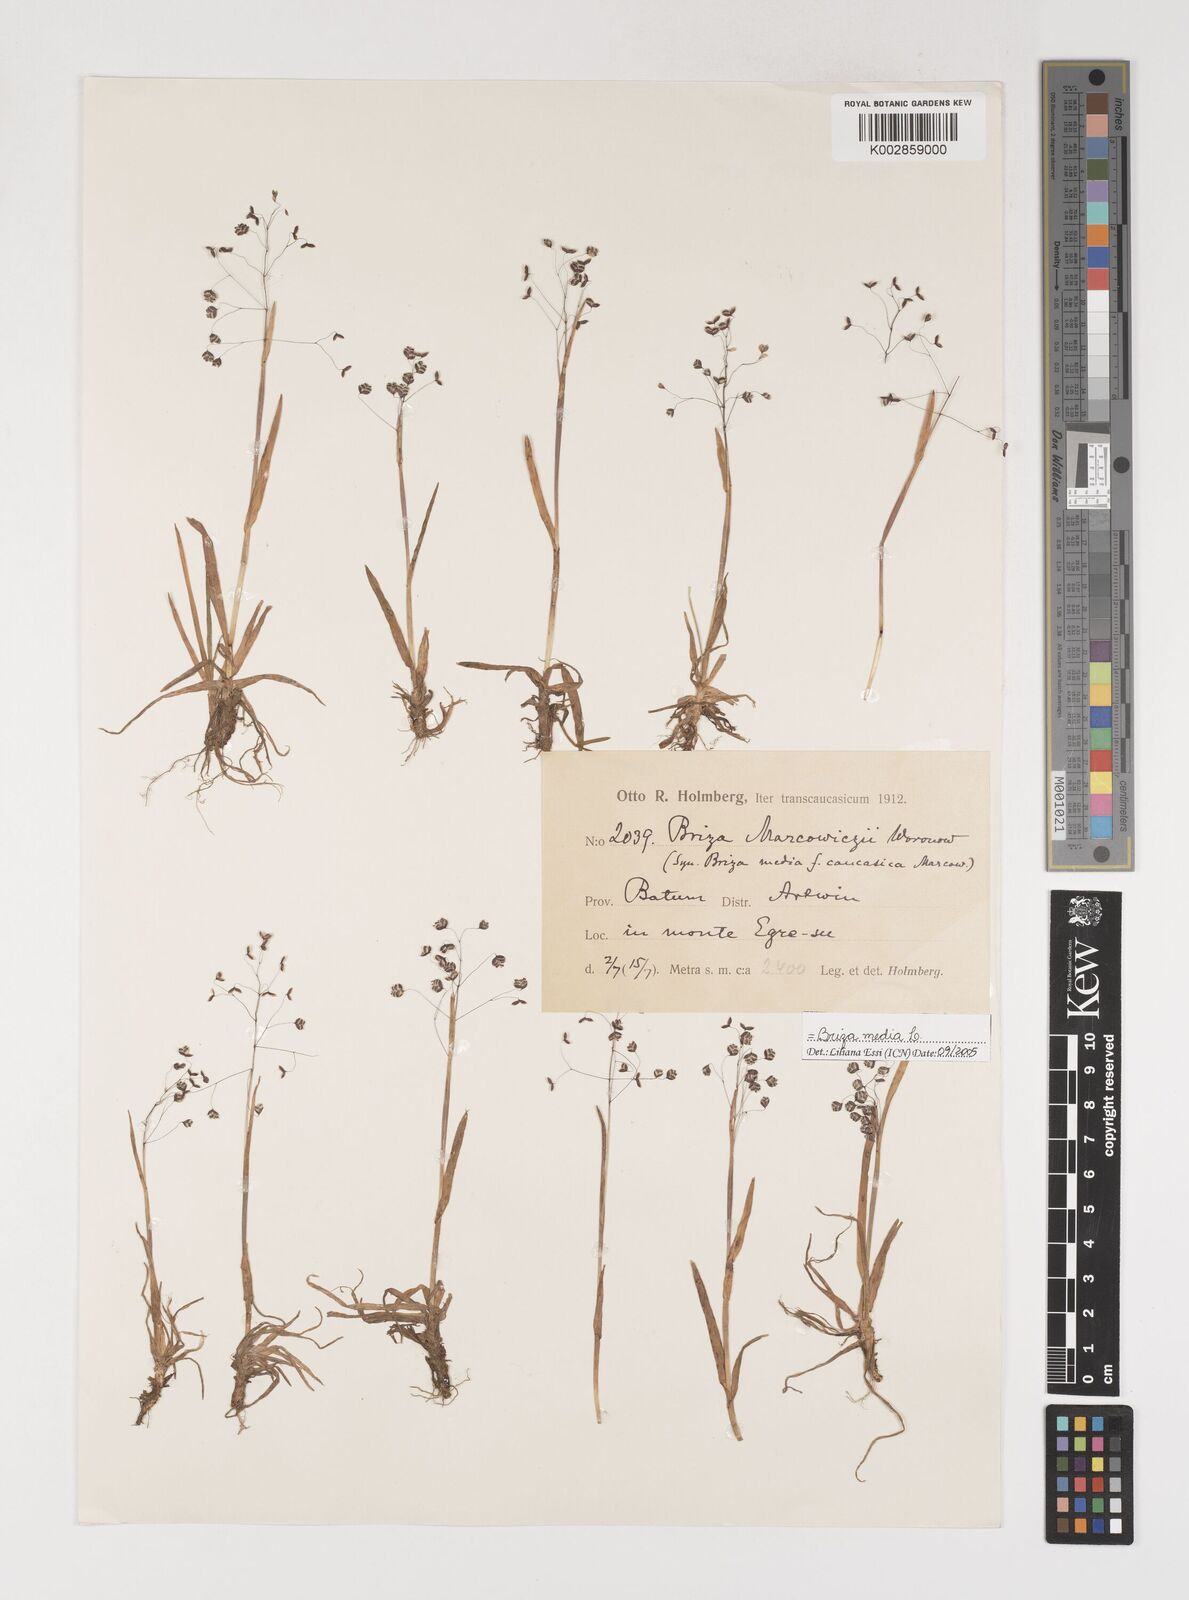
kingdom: Plantae
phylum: Tracheophyta
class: Liliopsida
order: Poales
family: Poaceae
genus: Briza
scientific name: Briza marcowiczii
